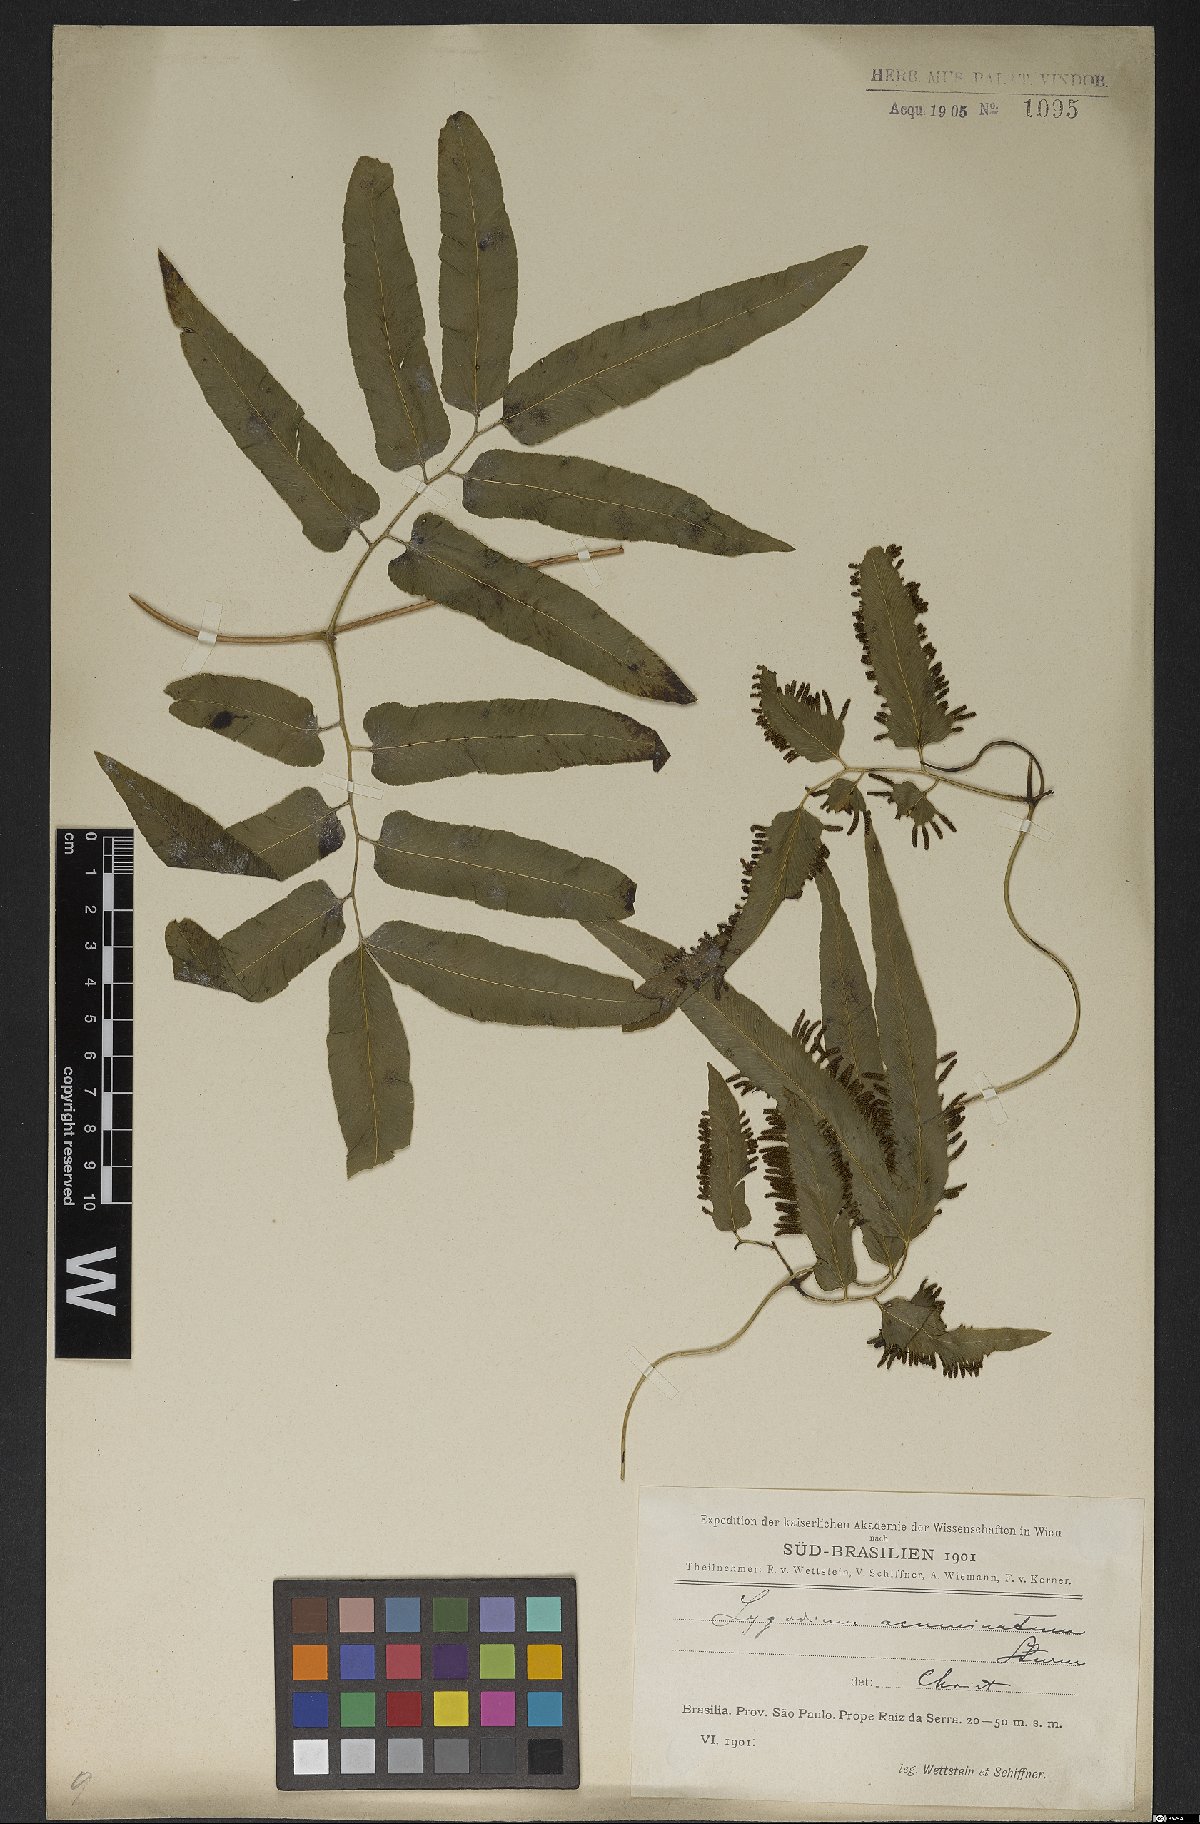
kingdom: Plantae
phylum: Tracheophyta
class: Polypodiopsida
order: Schizaeales
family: Lygodiaceae
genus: Lygodium
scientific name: Lygodium volubile
